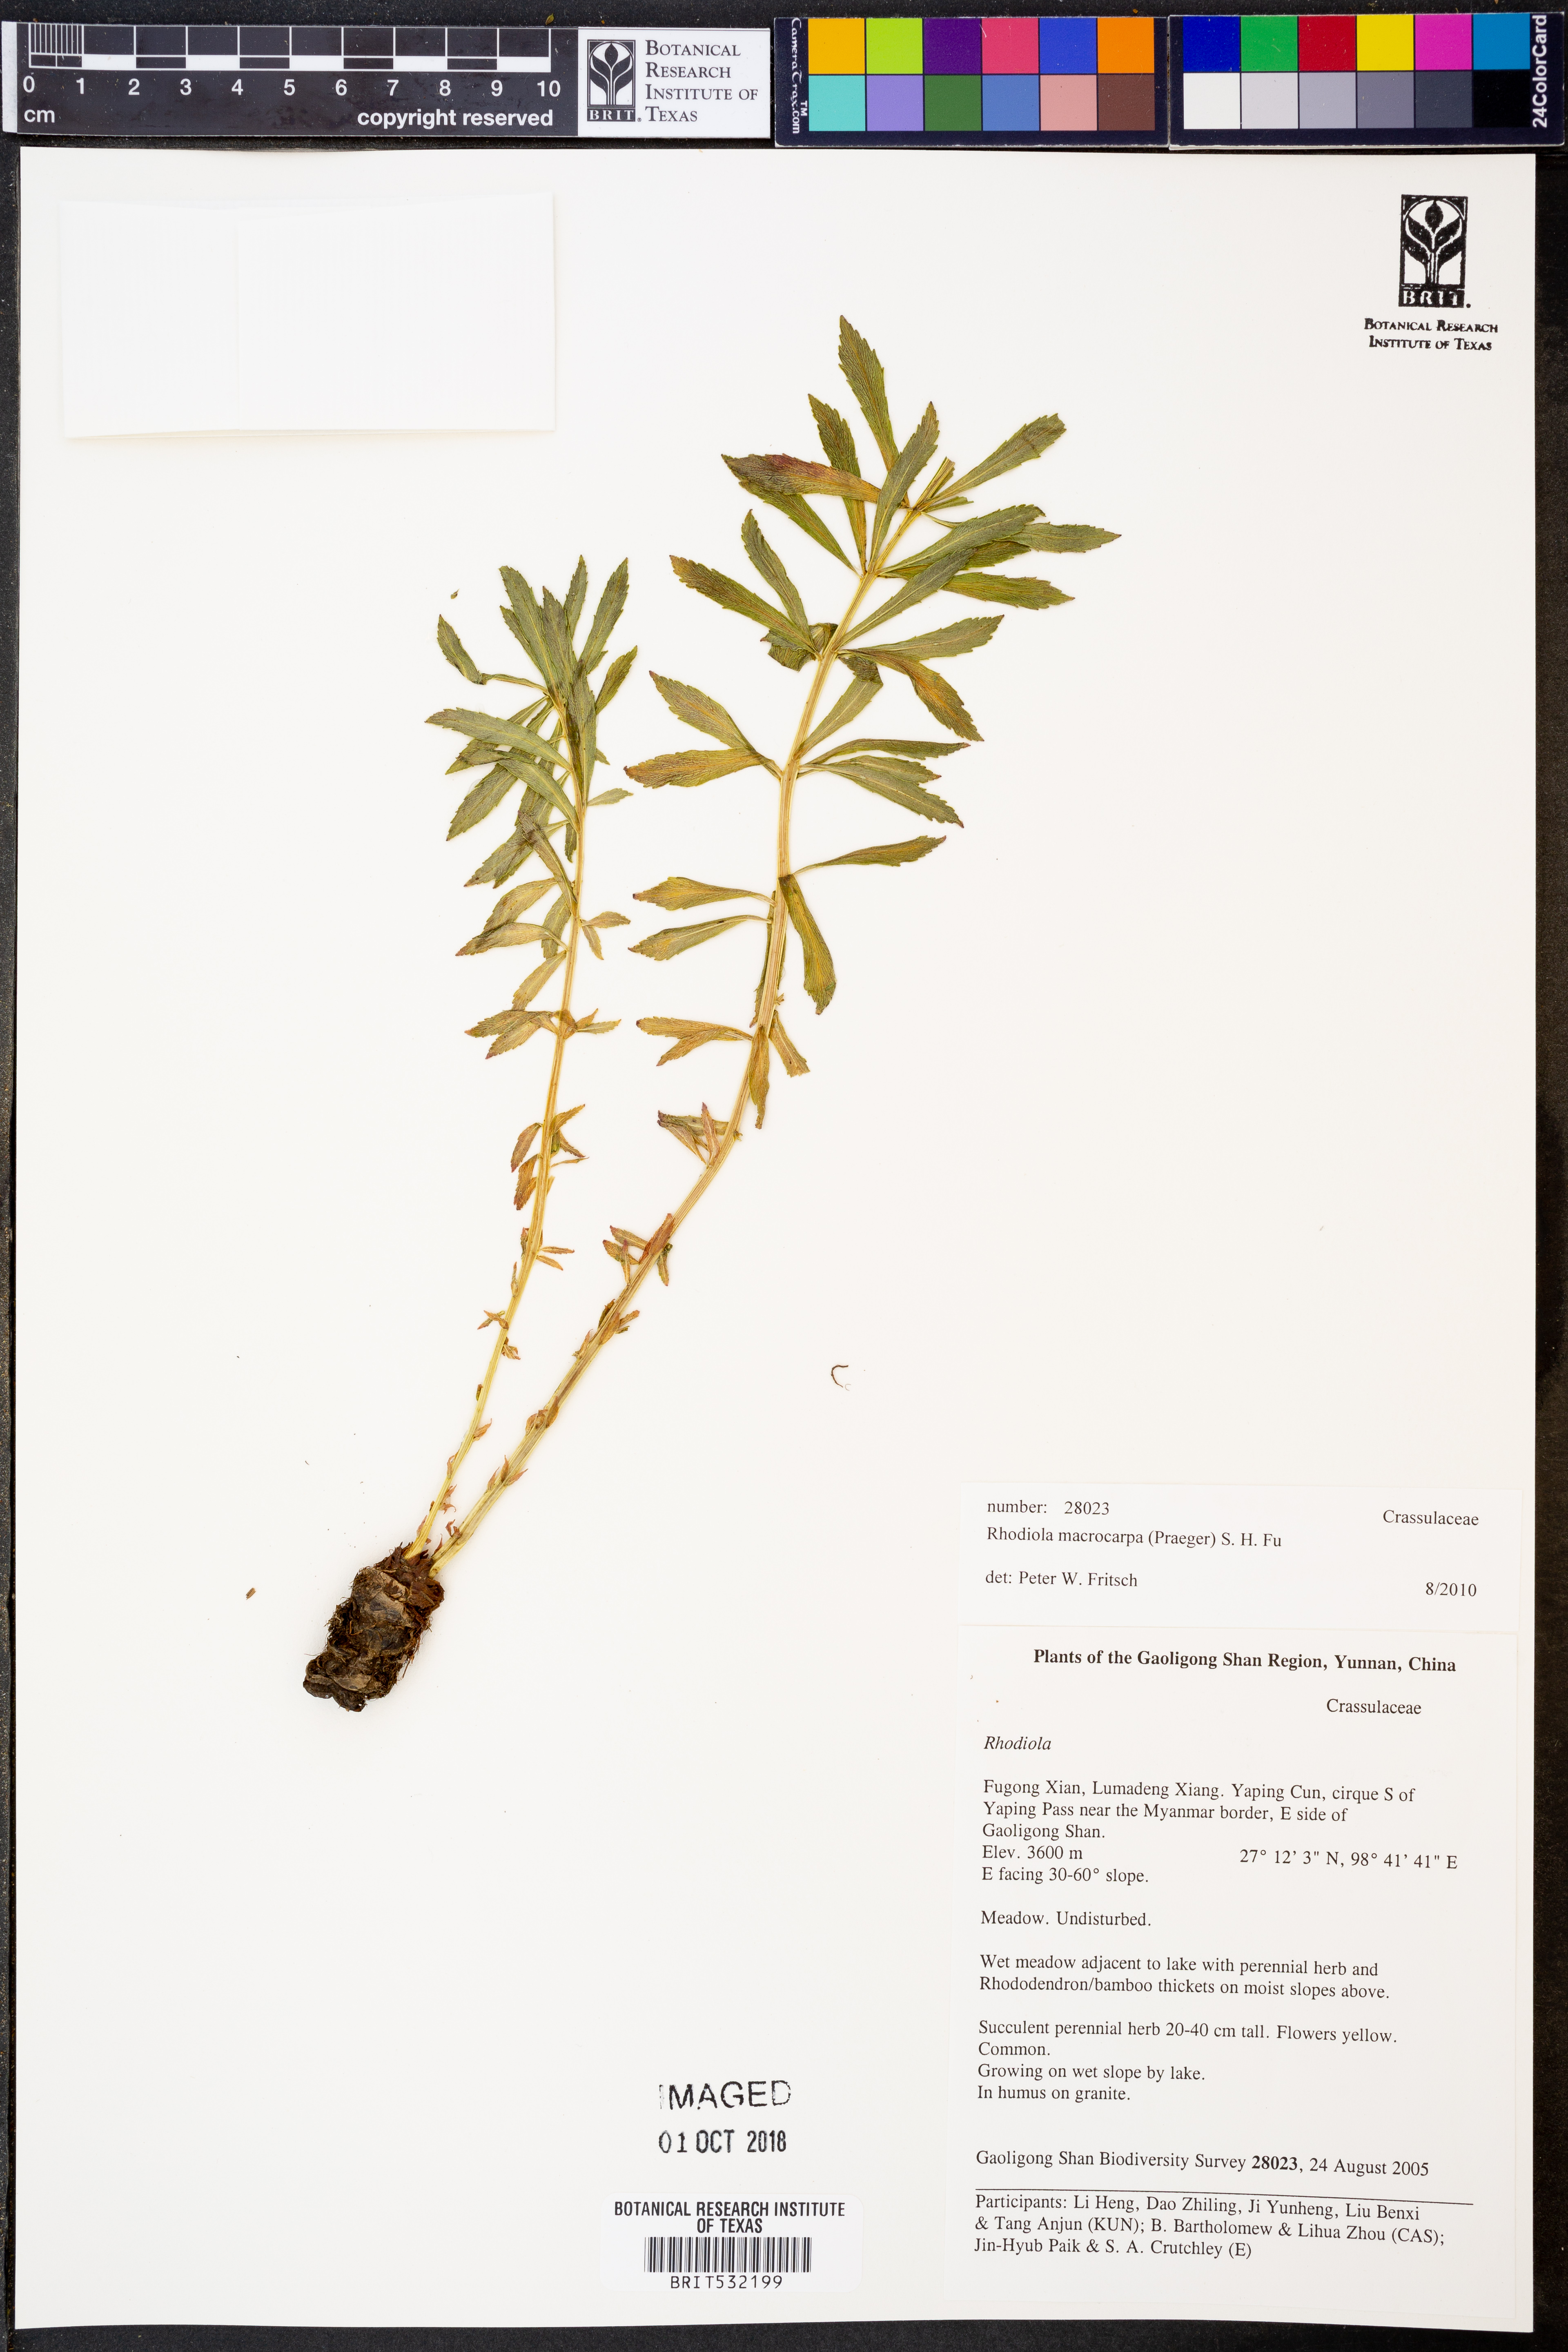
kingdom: Plantae
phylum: Tracheophyta
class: Magnoliopsida
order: Saxifragales
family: Crassulaceae
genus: Rhodiola
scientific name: Rhodiola macrocarpa
